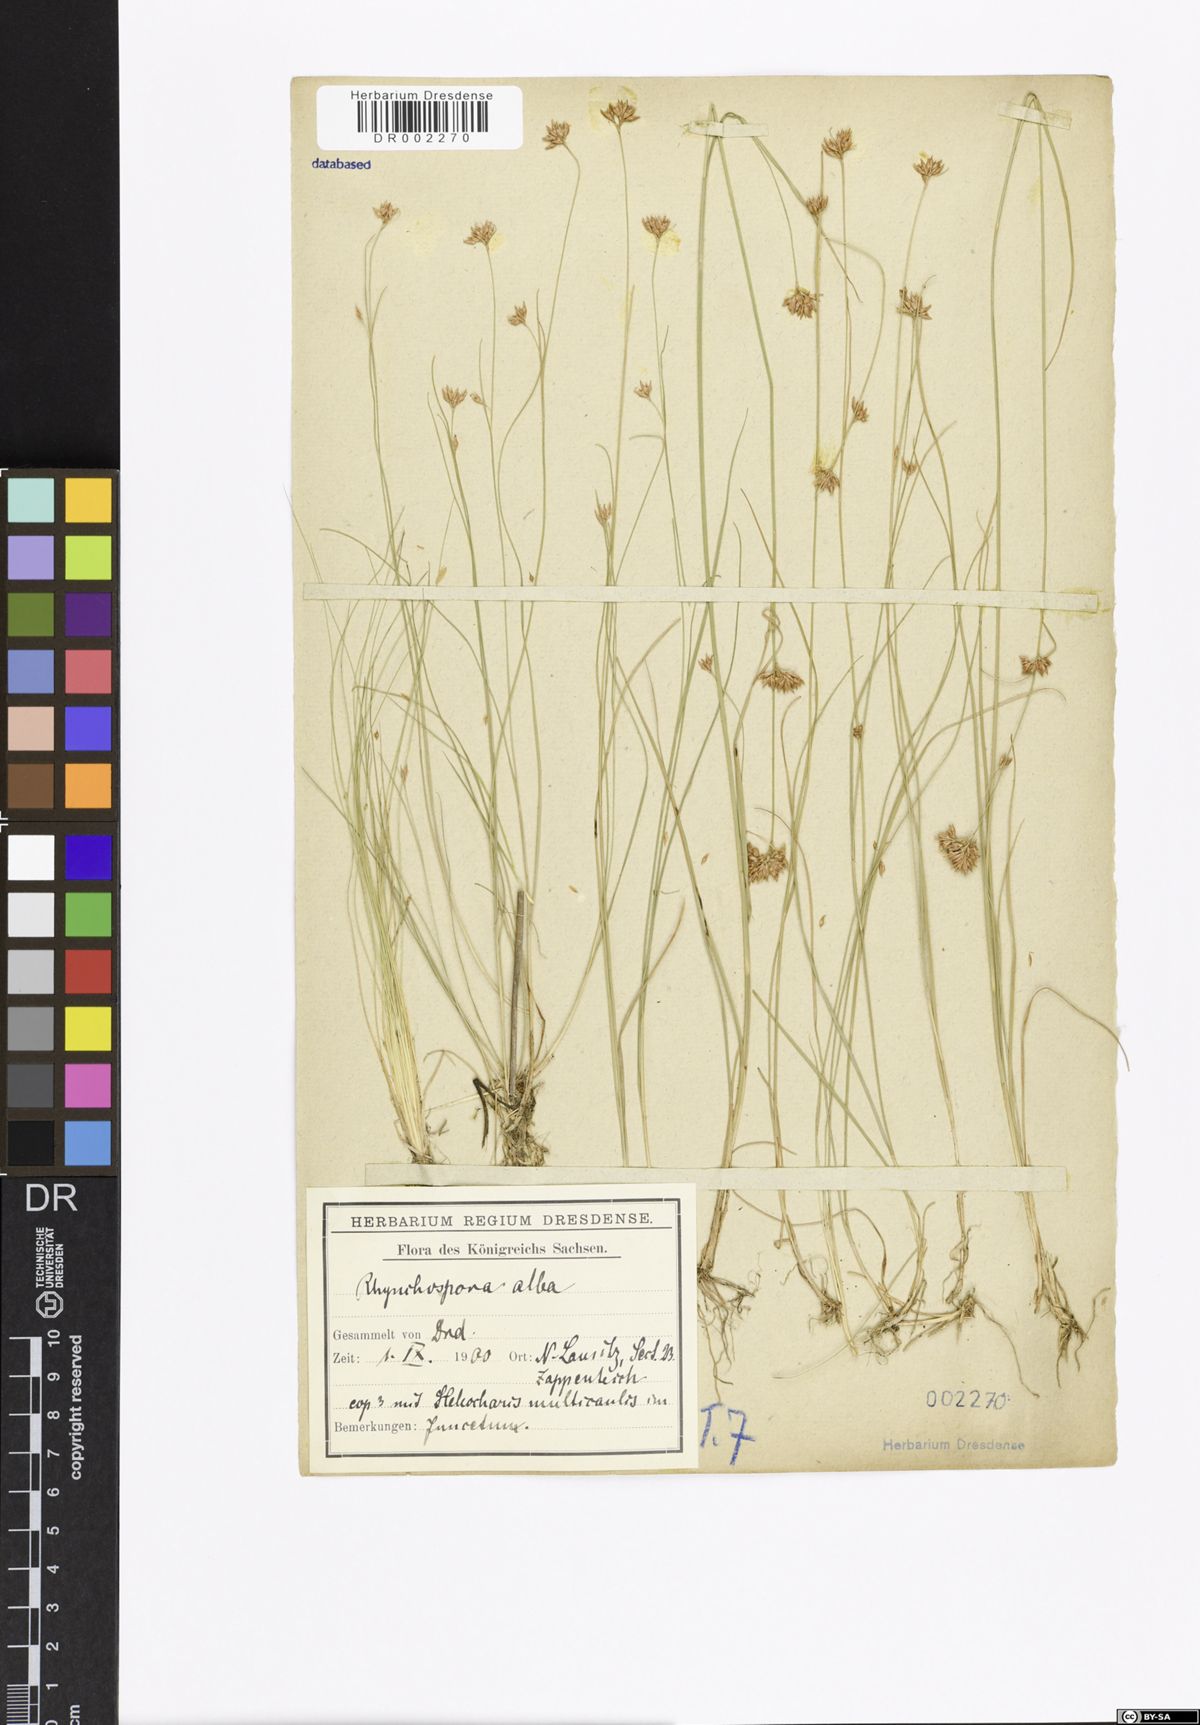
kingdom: Plantae
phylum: Tracheophyta
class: Liliopsida
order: Poales
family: Cyperaceae
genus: Rhynchospora
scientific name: Rhynchospora alba
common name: White beak-sedge
